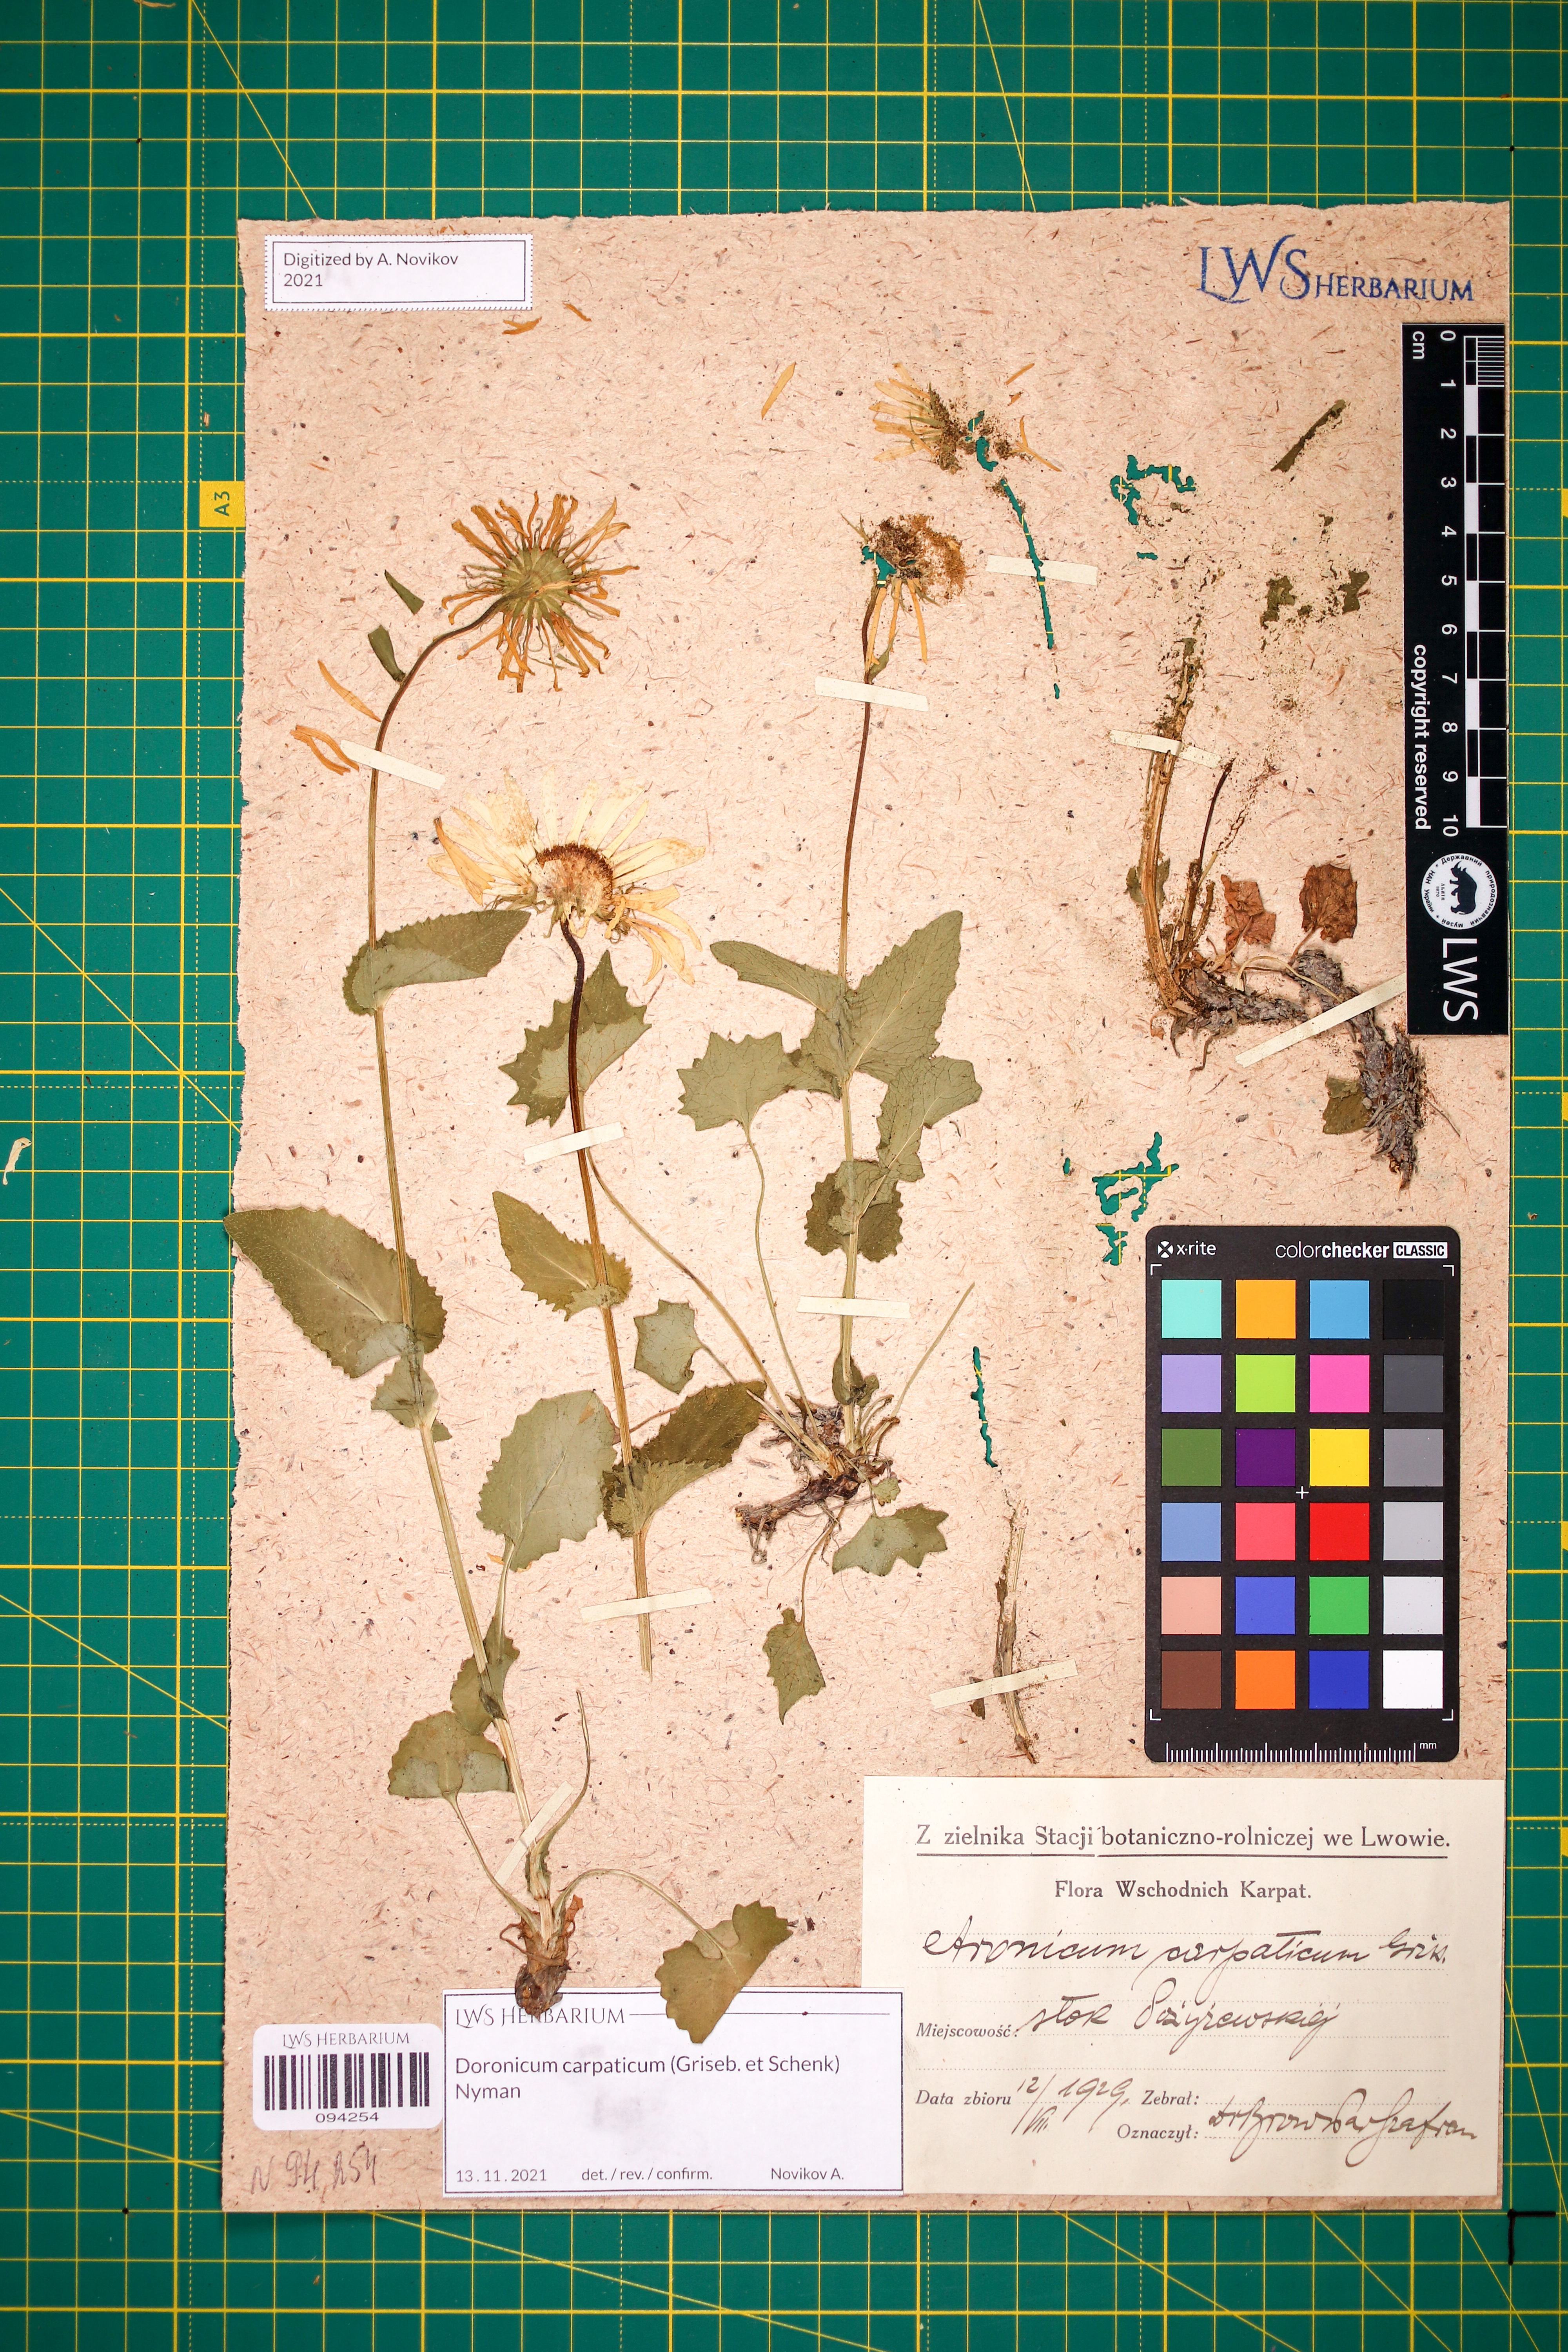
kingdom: Plantae
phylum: Tracheophyta
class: Magnoliopsida
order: Asterales
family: Asteraceae
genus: Doronicum
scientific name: Doronicum carpaticum
